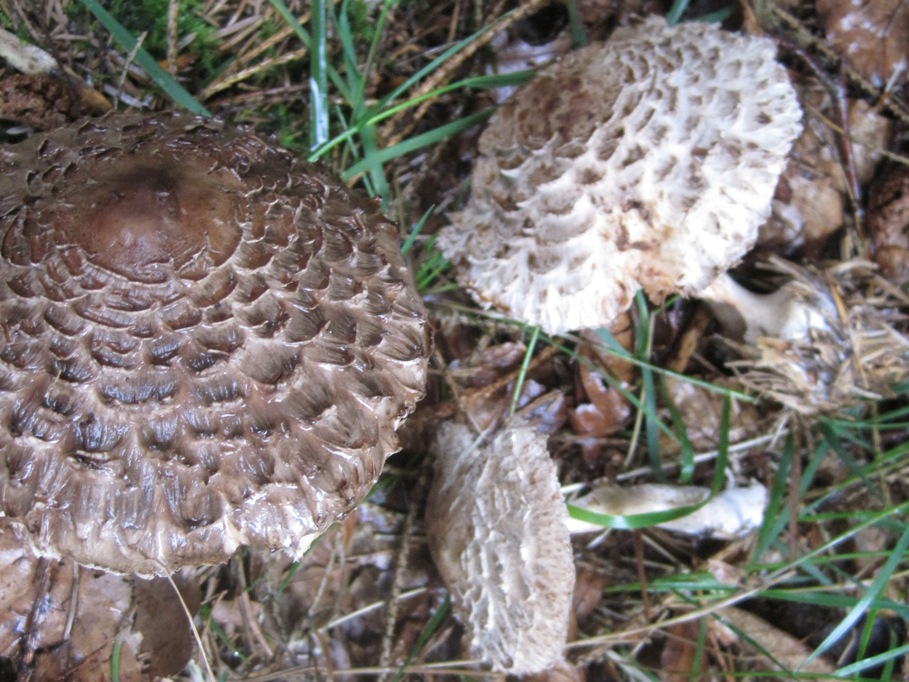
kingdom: Fungi
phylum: Basidiomycota
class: Agaricomycetes
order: Agaricales
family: Agaricaceae
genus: Chlorophyllum
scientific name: Chlorophyllum olivieri
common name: almindelig rabarberhat
